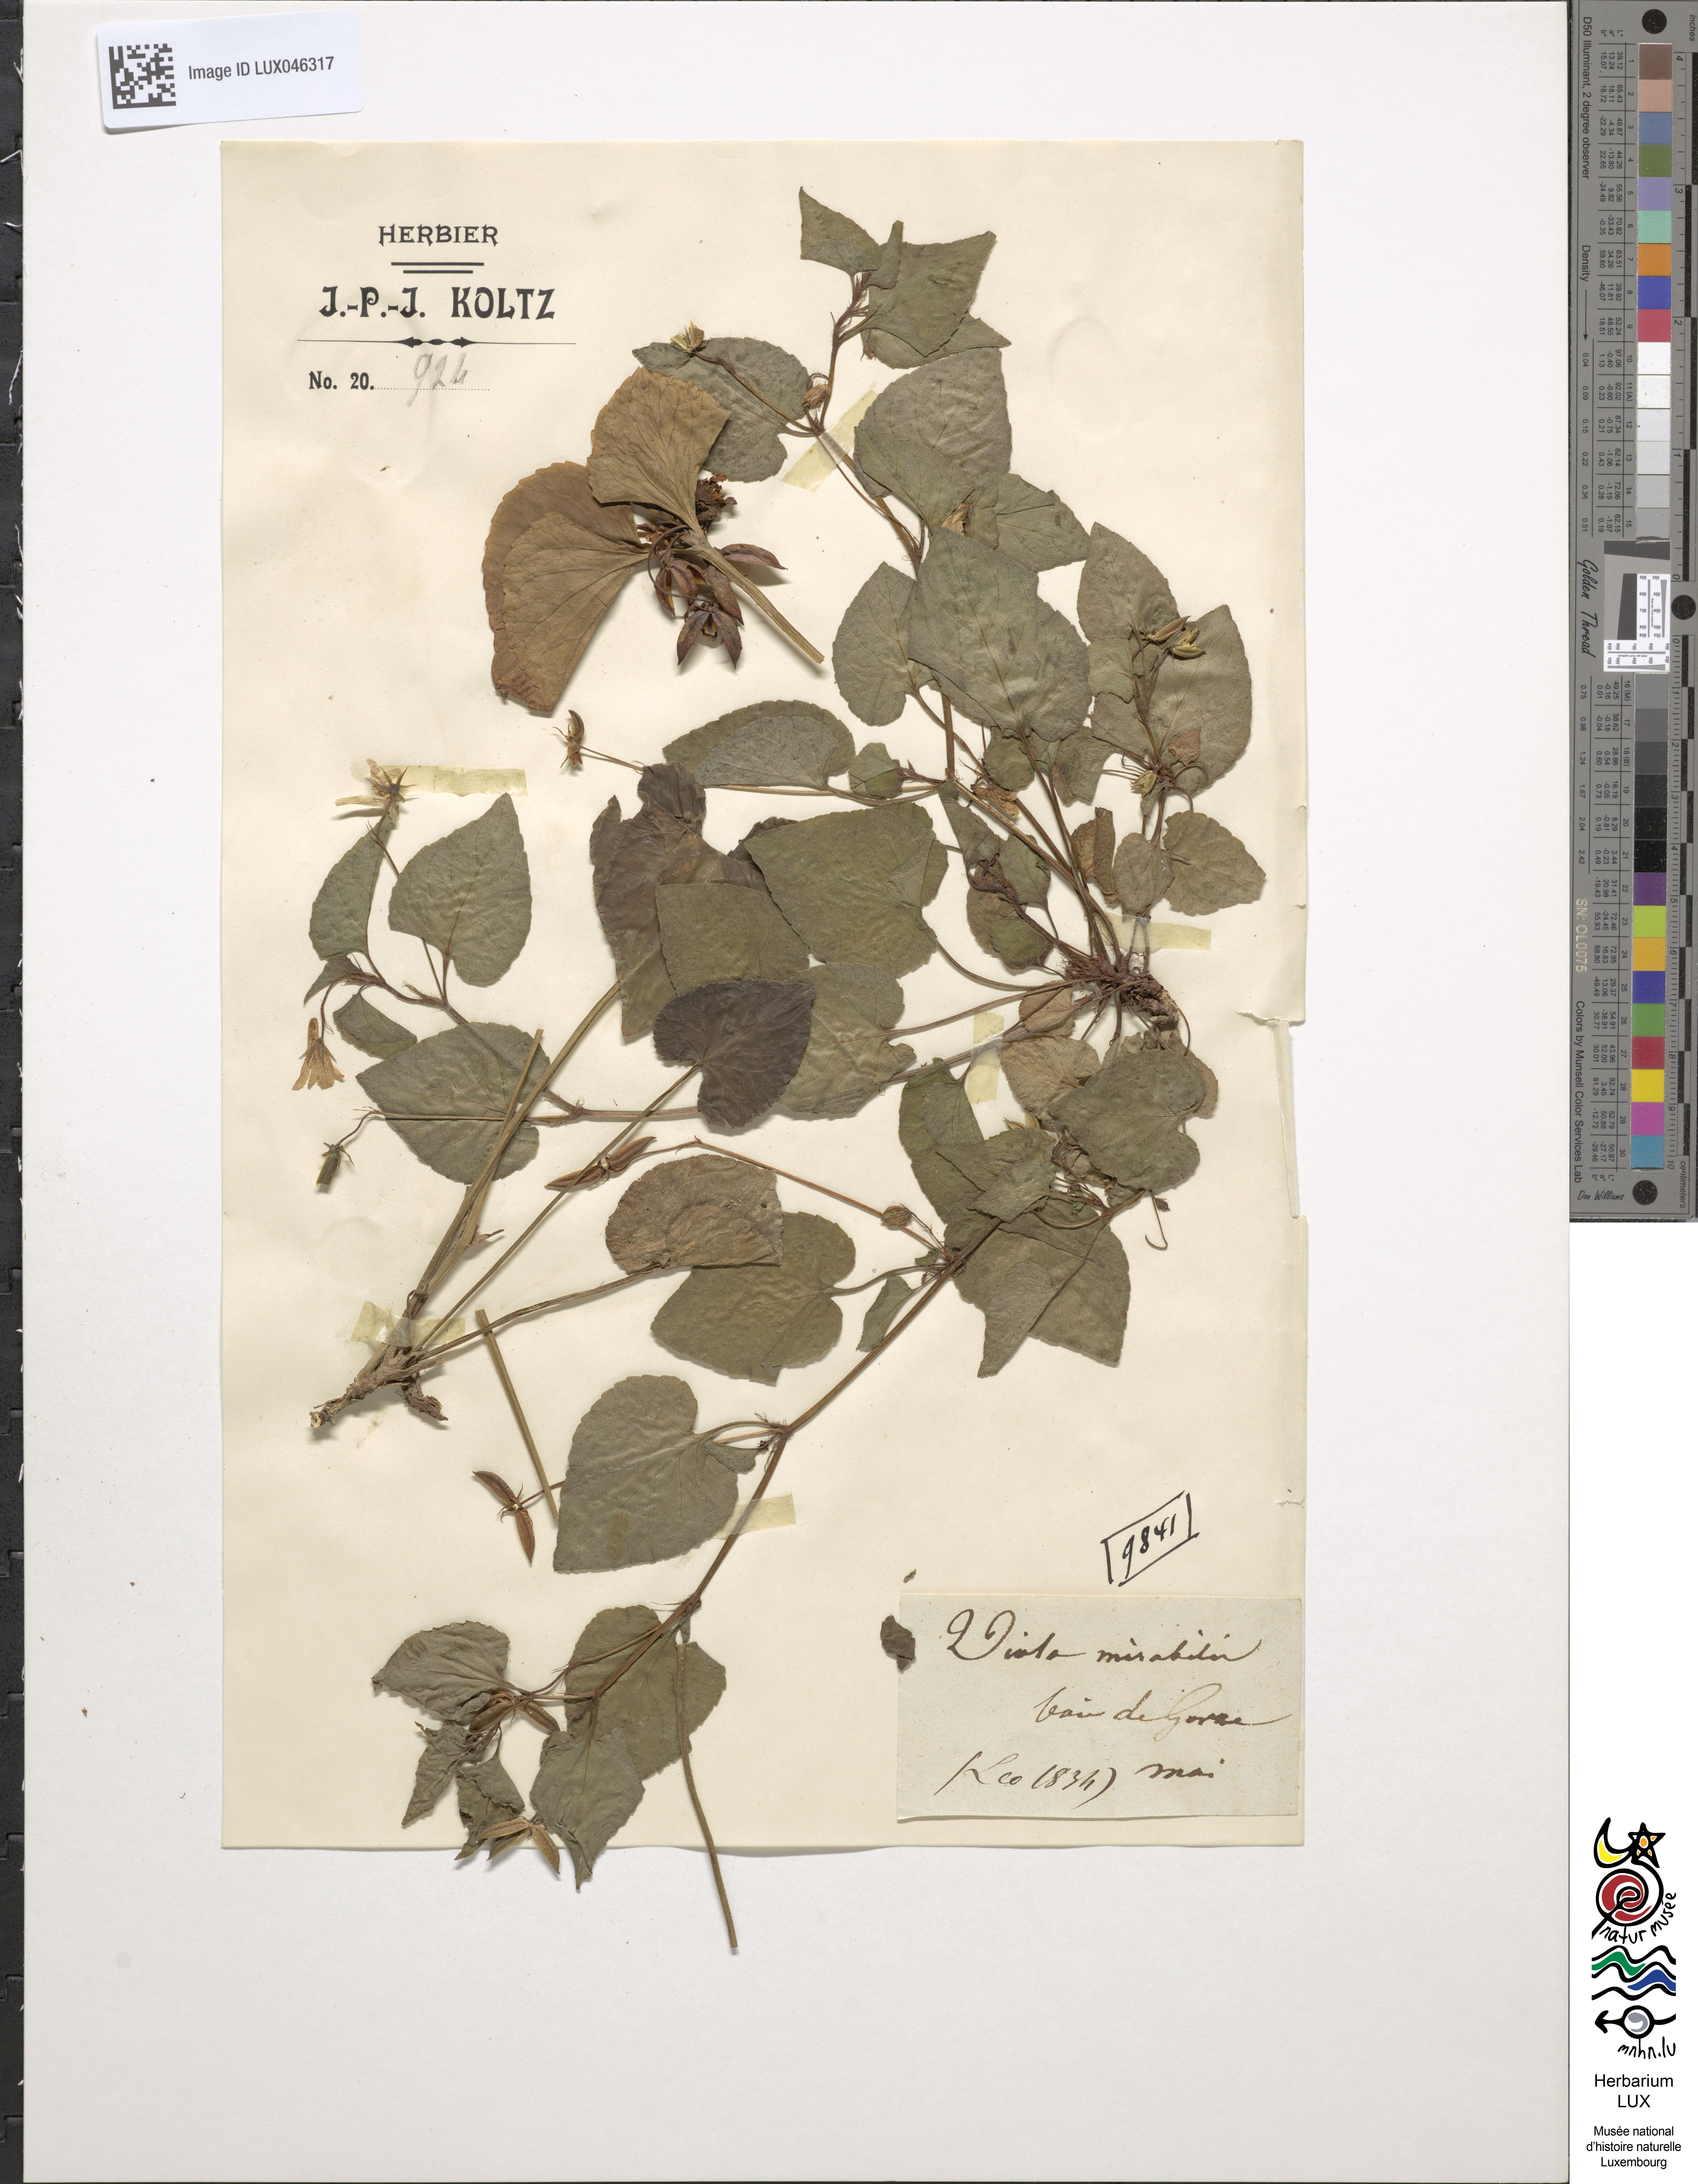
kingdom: Plantae
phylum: Tracheophyta
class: Magnoliopsida
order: Malpighiales
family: Violaceae
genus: Viola
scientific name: Viola mirabilis
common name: Wonder violet
